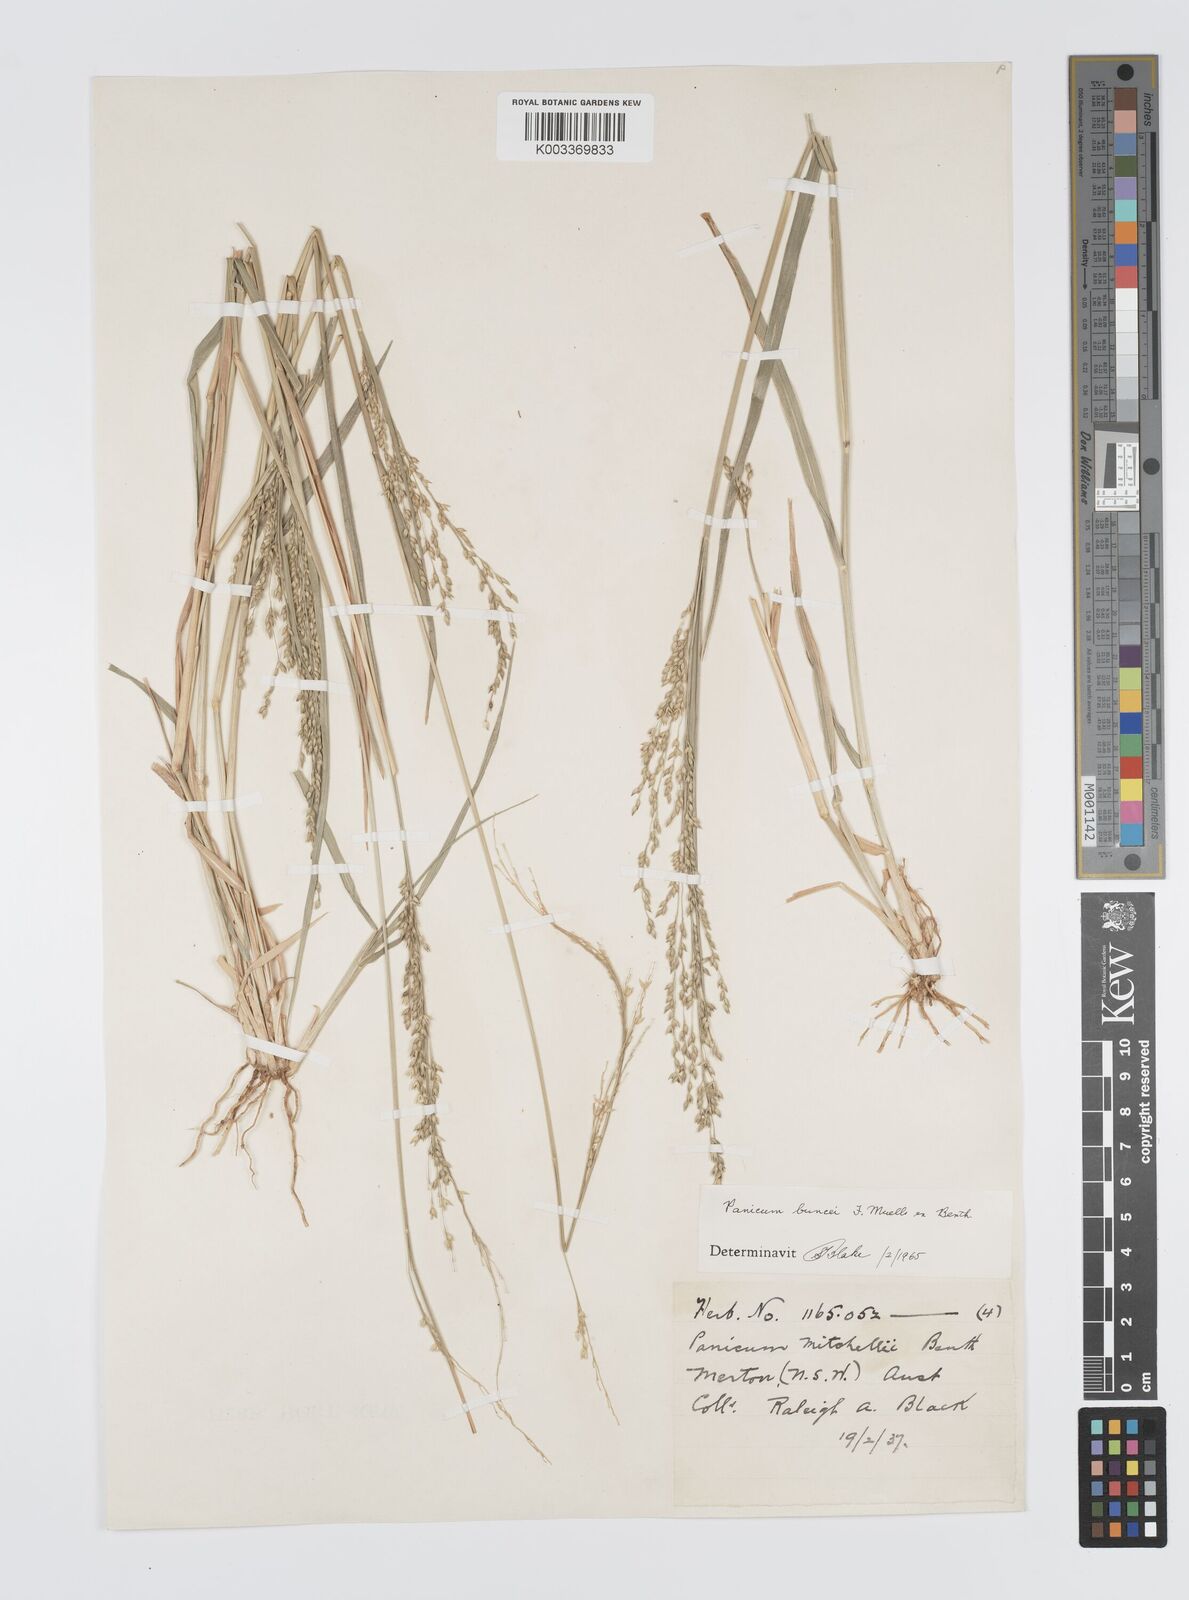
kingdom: Plantae
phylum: Tracheophyta
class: Liliopsida
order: Poales
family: Poaceae
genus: Panicum
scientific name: Panicum buncei
